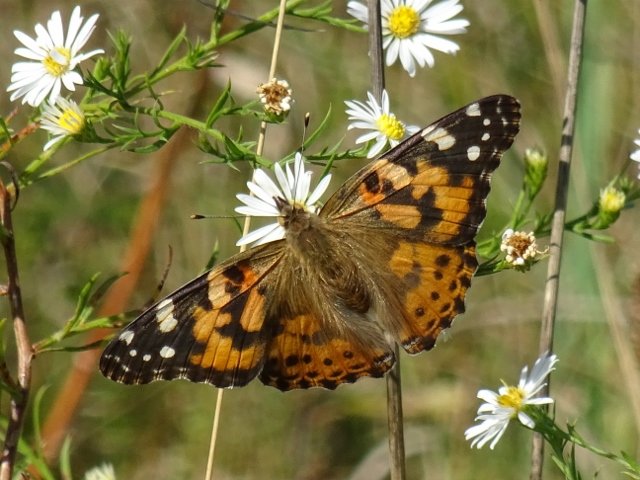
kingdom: Animalia
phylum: Arthropoda
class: Insecta
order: Lepidoptera
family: Nymphalidae
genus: Vanessa
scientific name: Vanessa cardui
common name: Painted Lady
